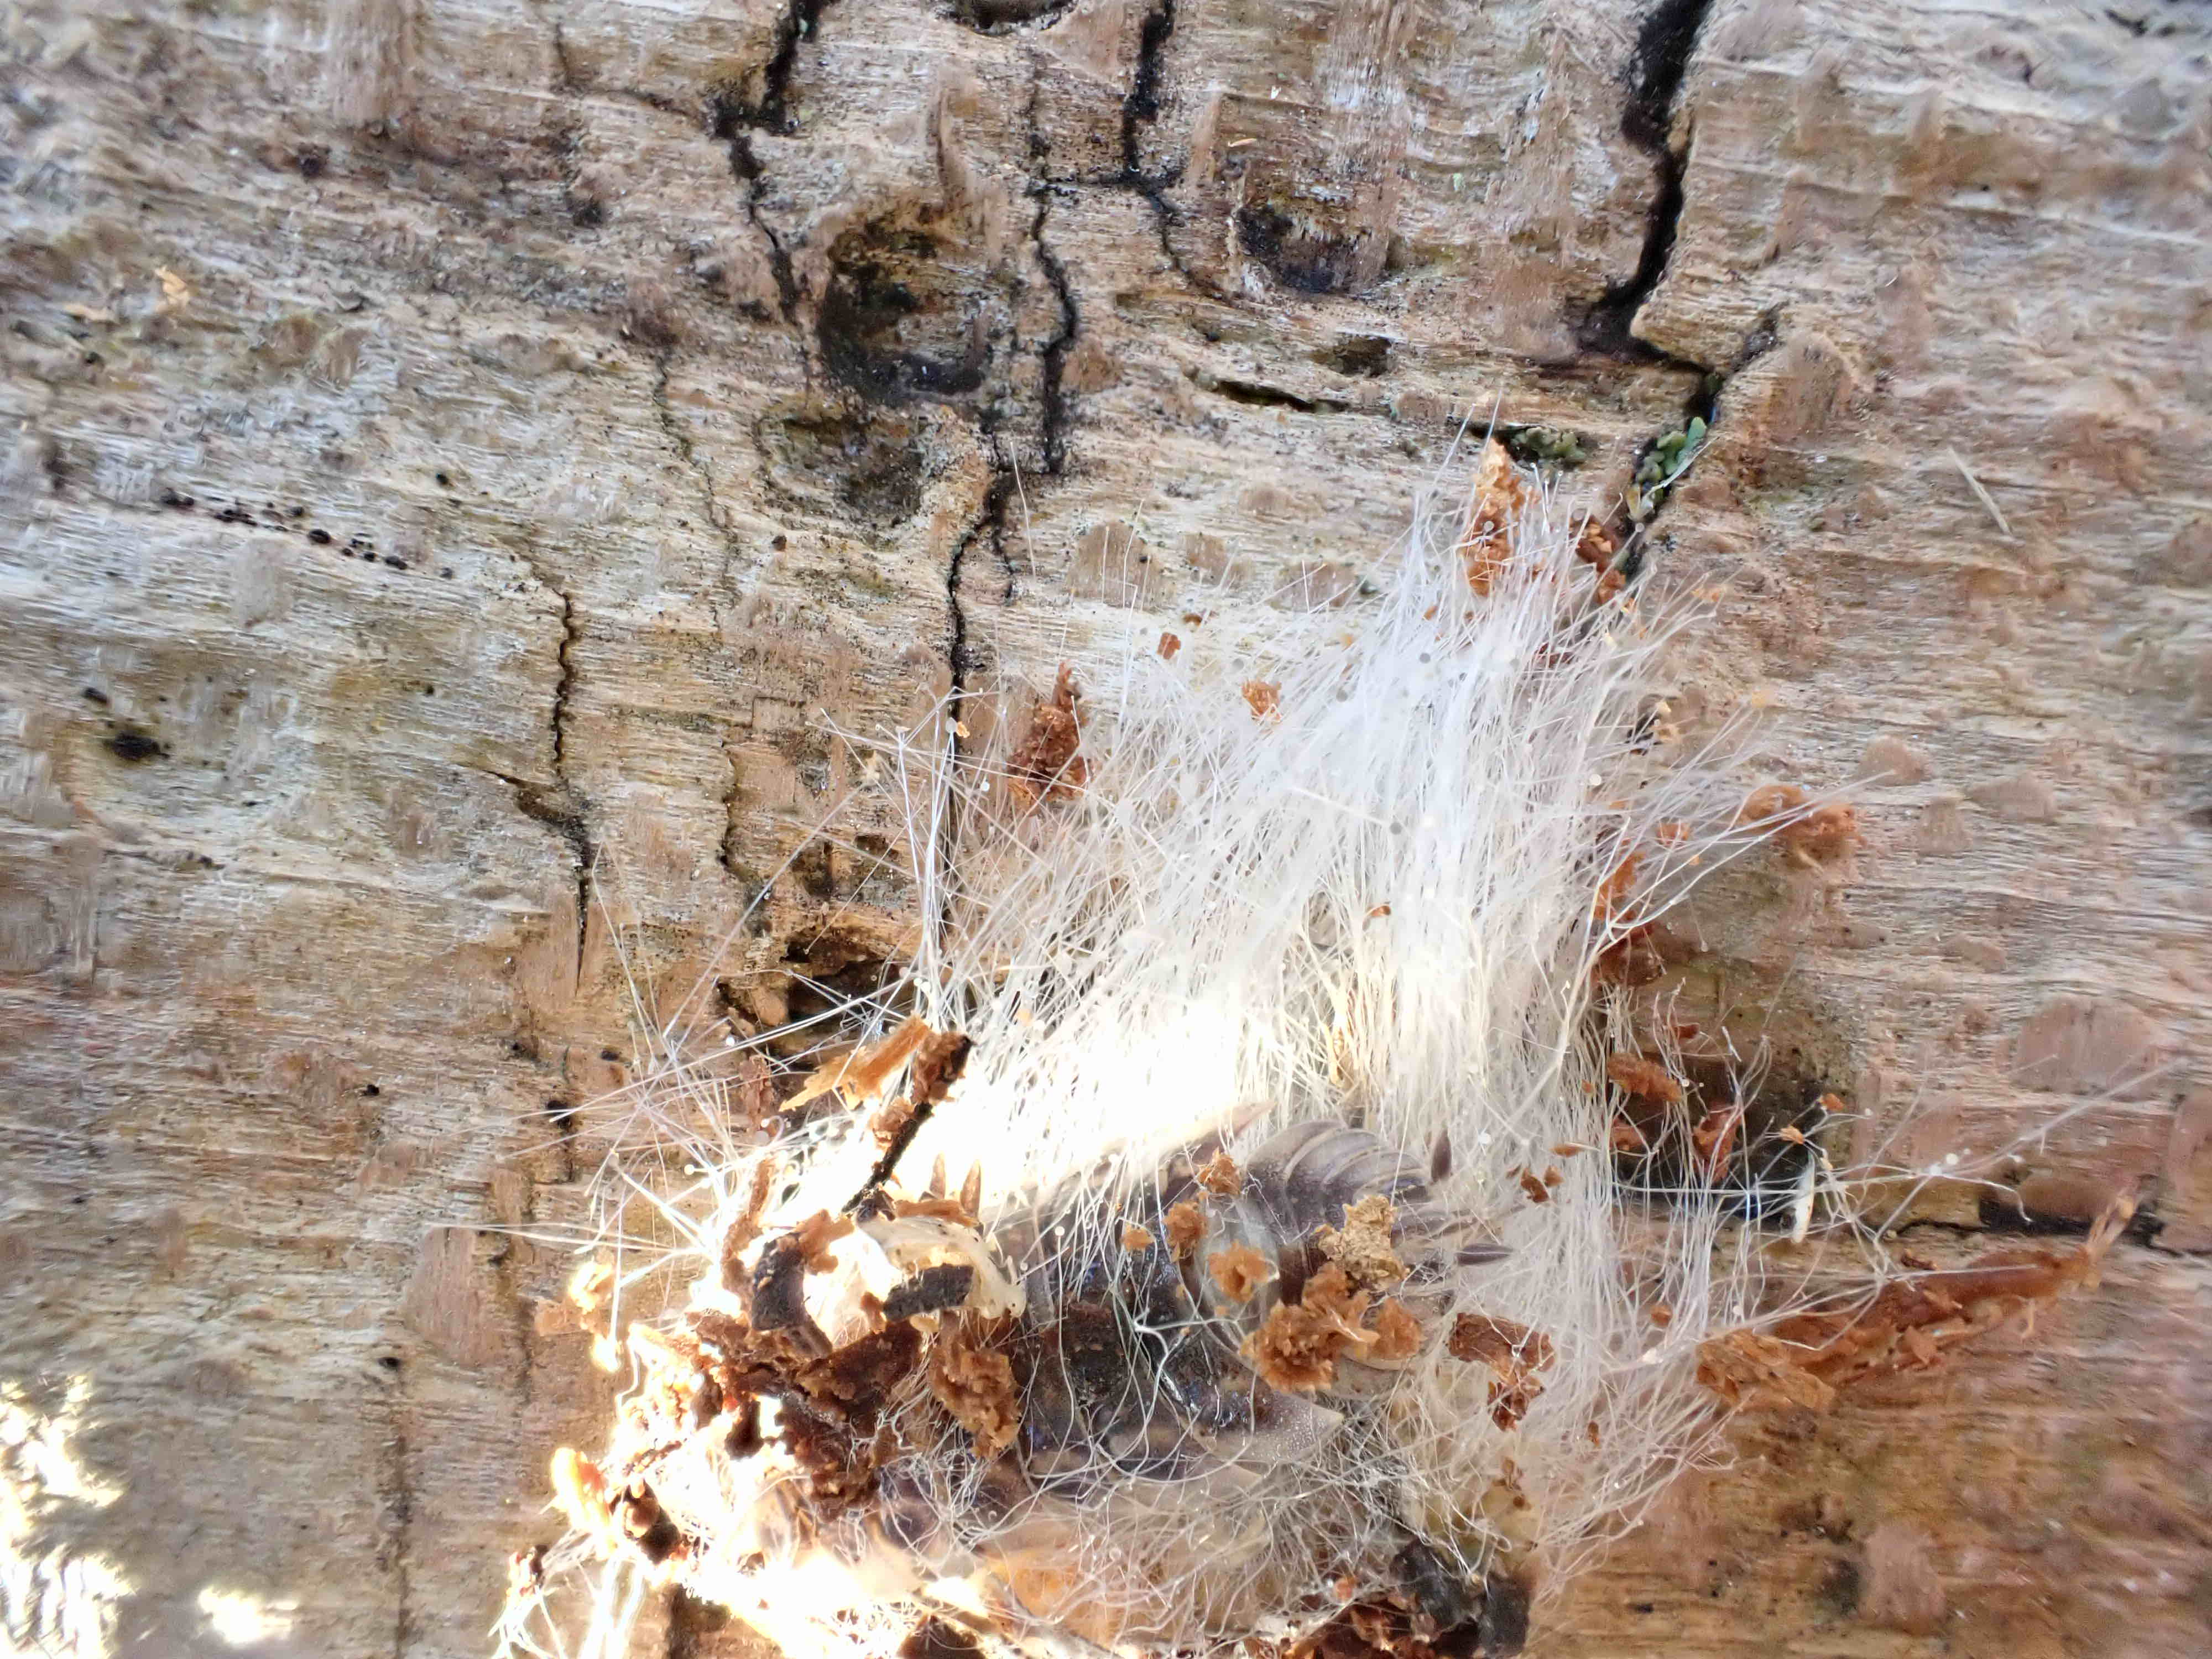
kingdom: Fungi
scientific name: Fungi
